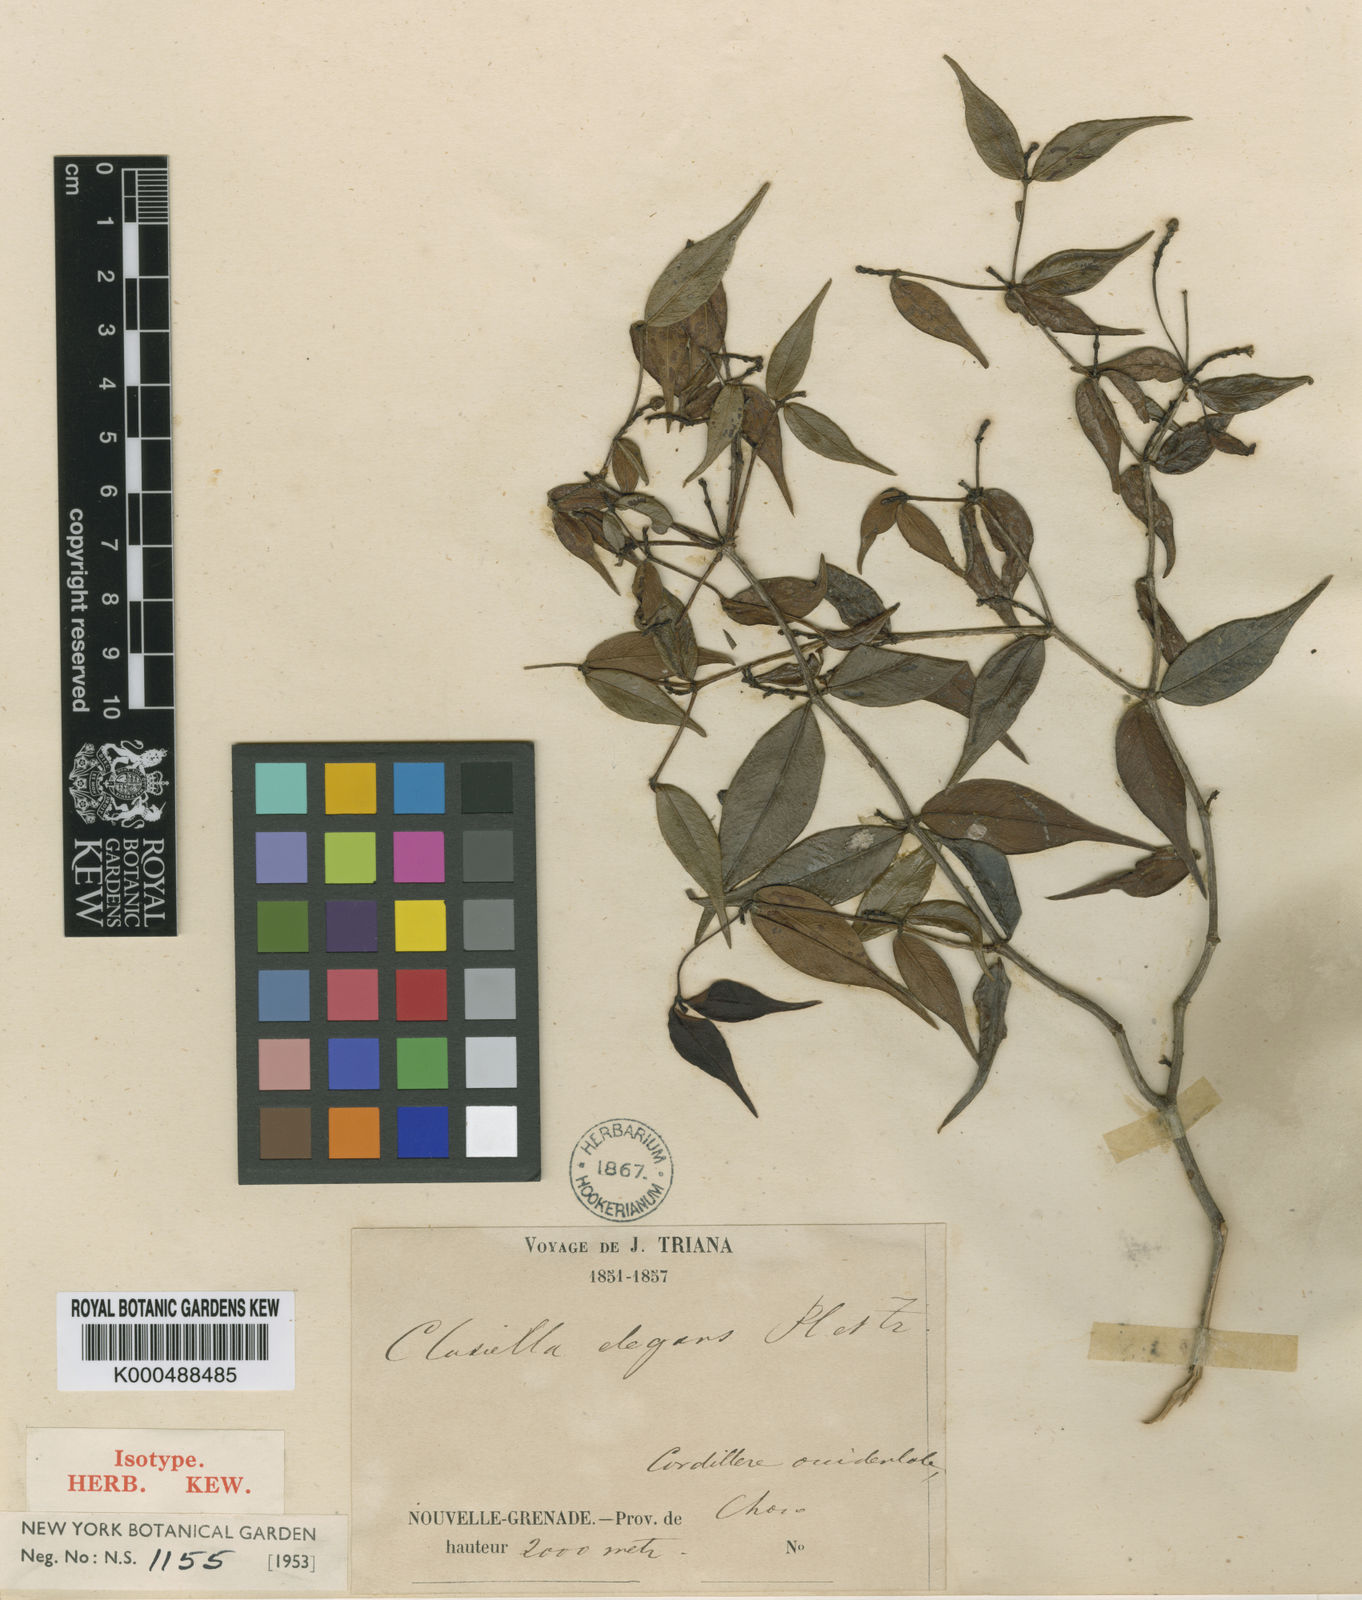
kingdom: Plantae
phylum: Tracheophyta
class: Magnoliopsida
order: Malpighiales
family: Calophyllaceae
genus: Clusiella
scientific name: Clusiella elegans
